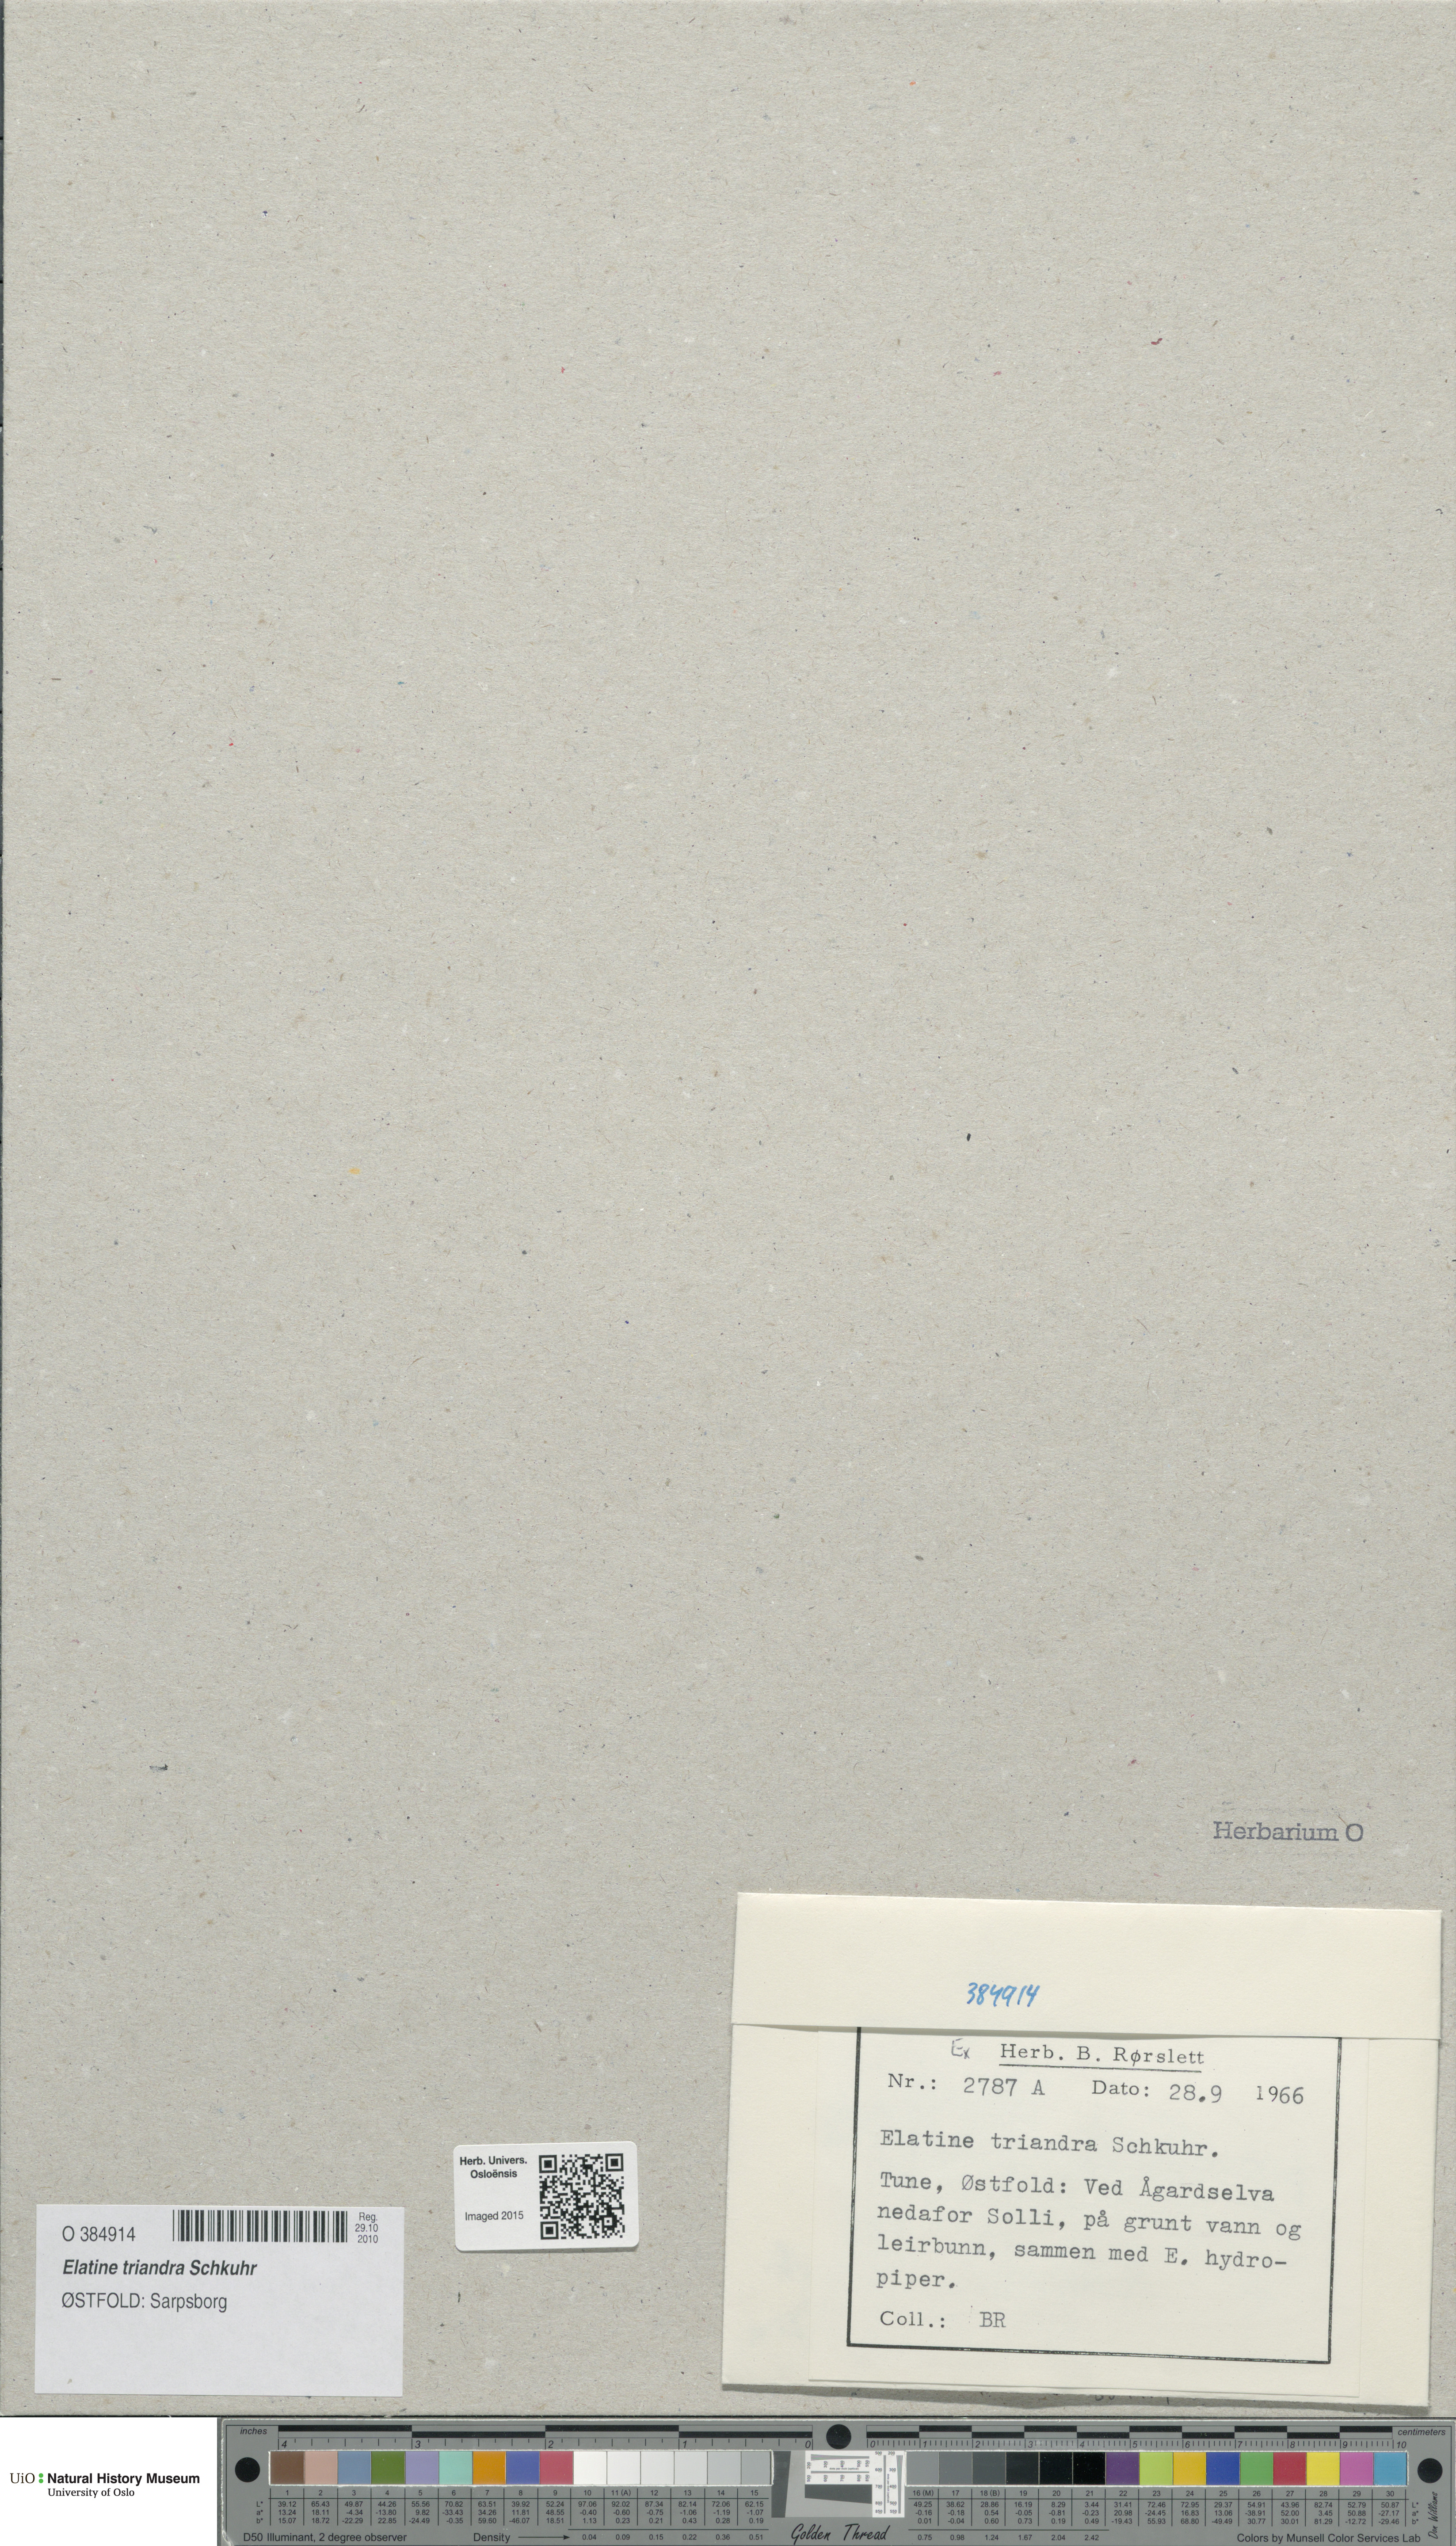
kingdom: Plantae
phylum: Tracheophyta
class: Magnoliopsida
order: Malpighiales
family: Elatinaceae
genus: Elatine
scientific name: Elatine triandra
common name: Three-stamened waterwort
